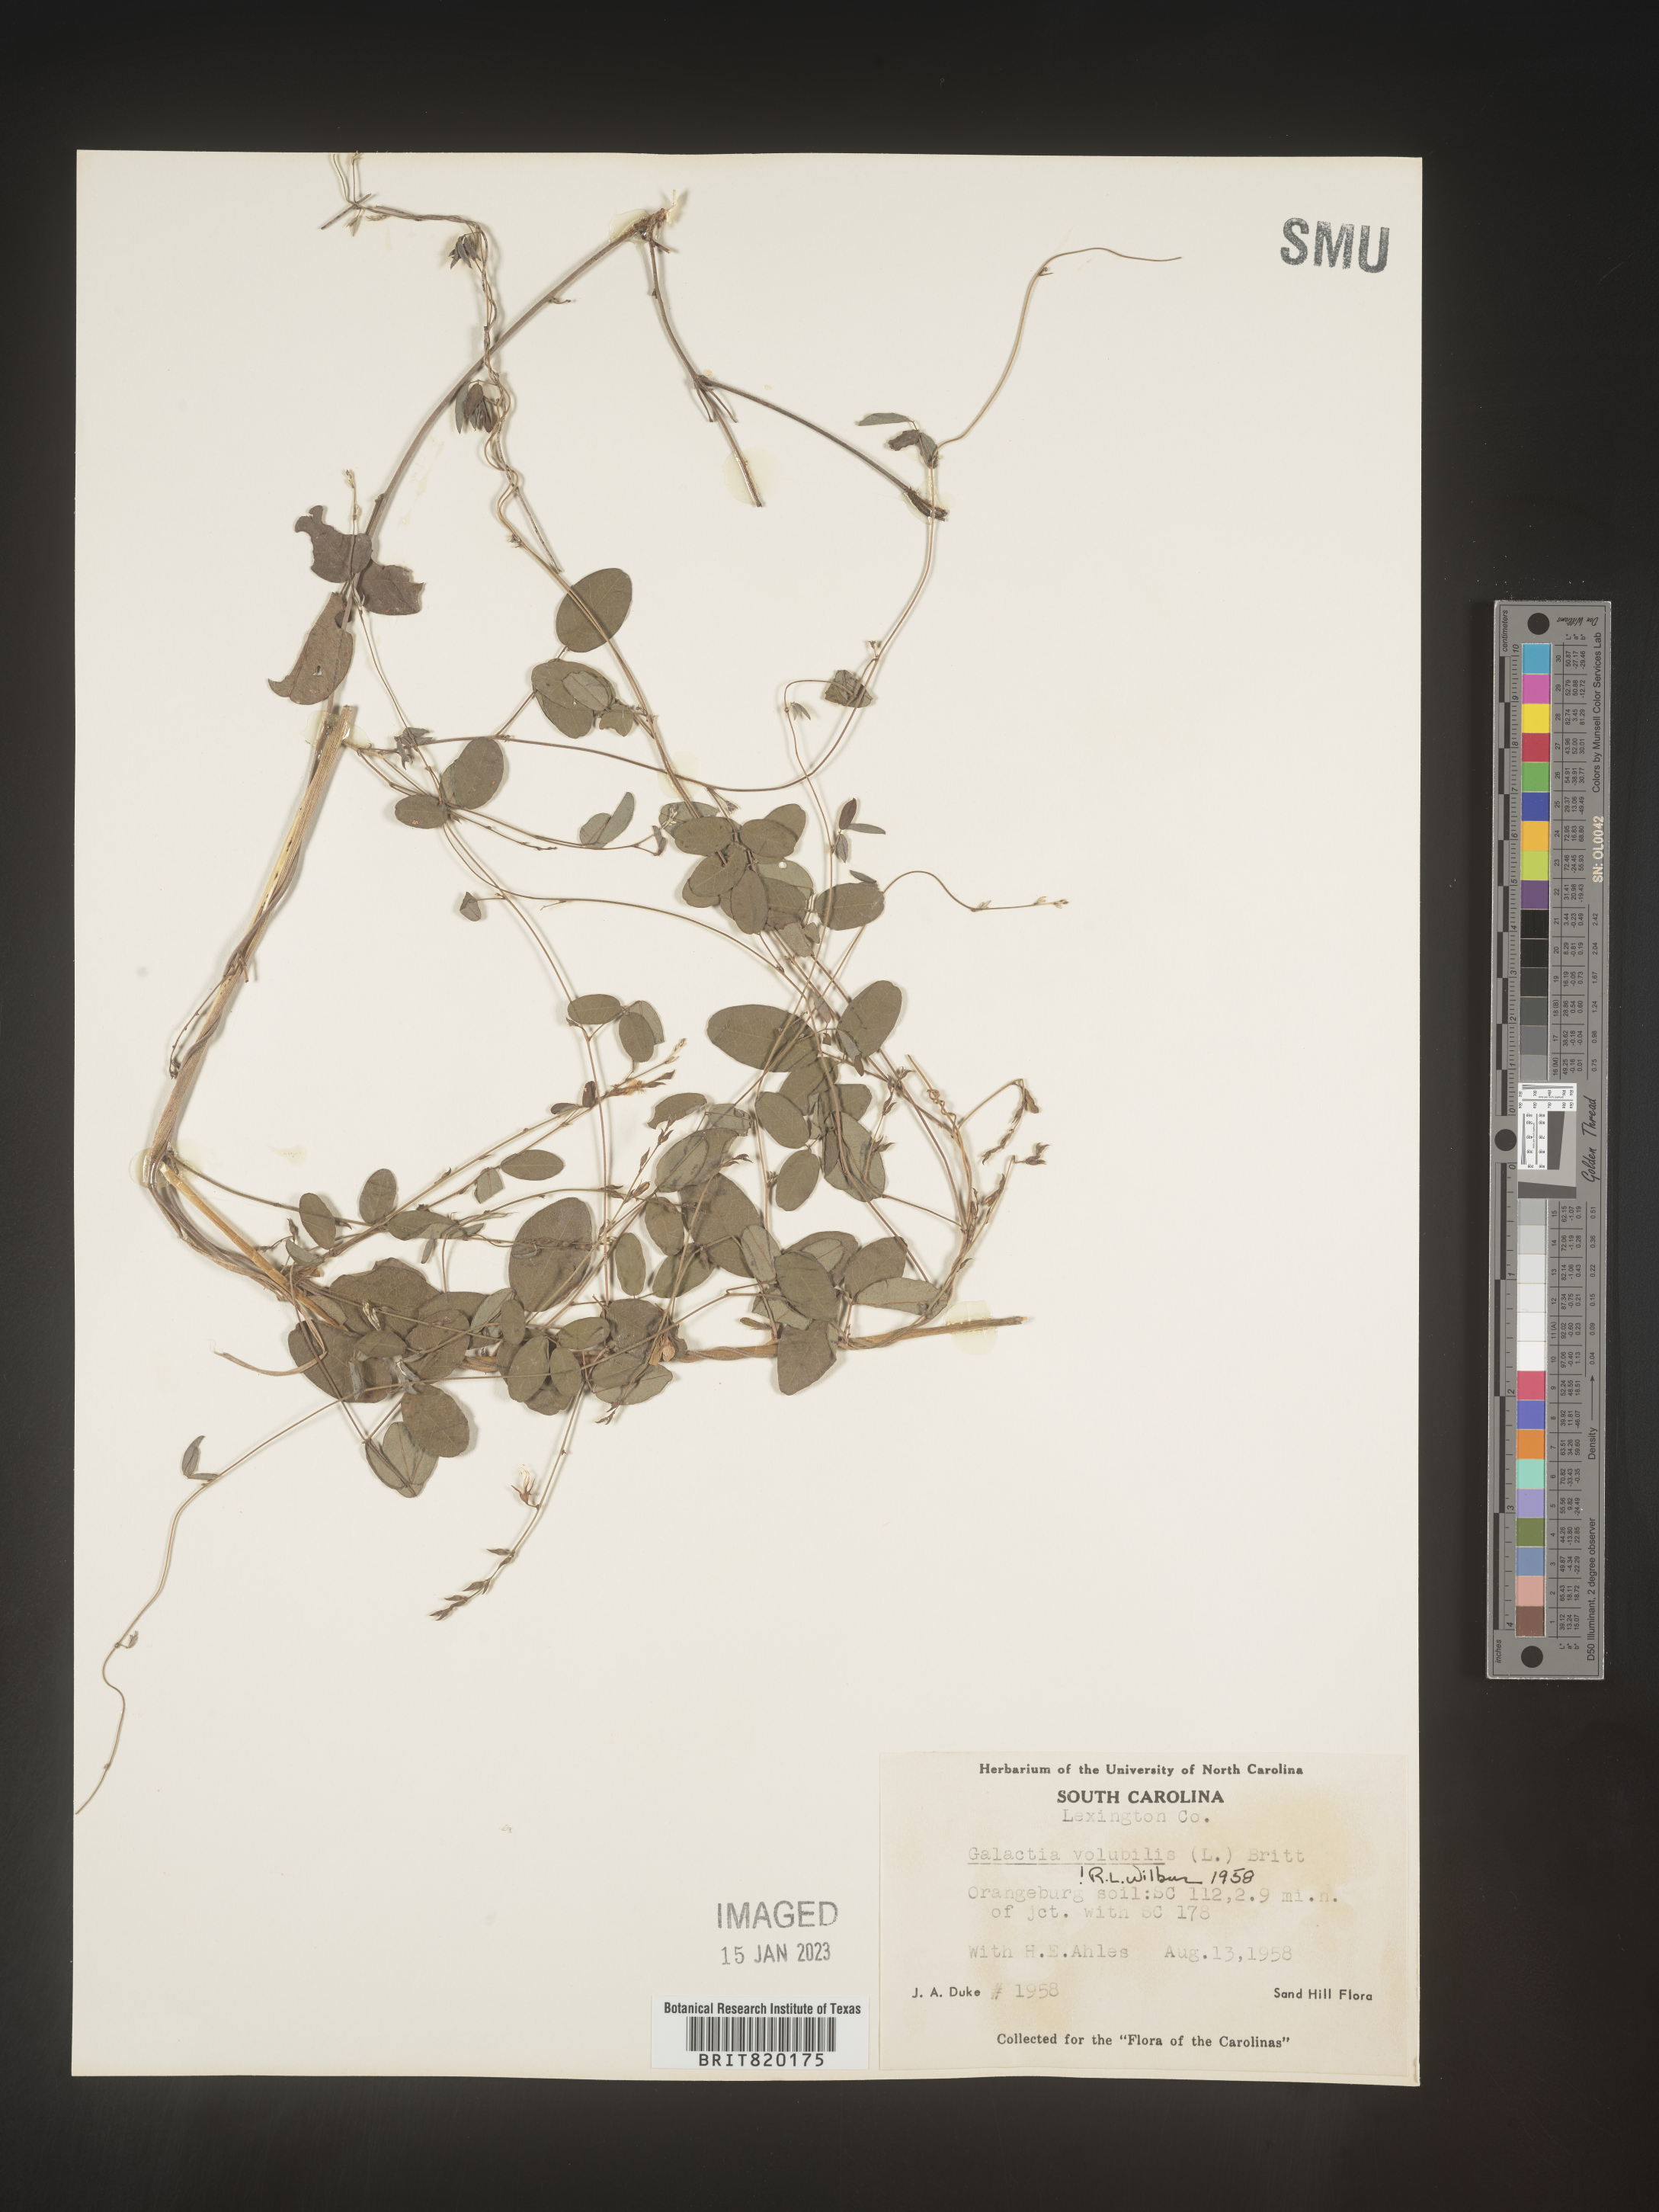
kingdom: Plantae
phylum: Tracheophyta
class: Magnoliopsida
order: Fabales
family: Fabaceae
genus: Galactia
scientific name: Galactia volubilis
